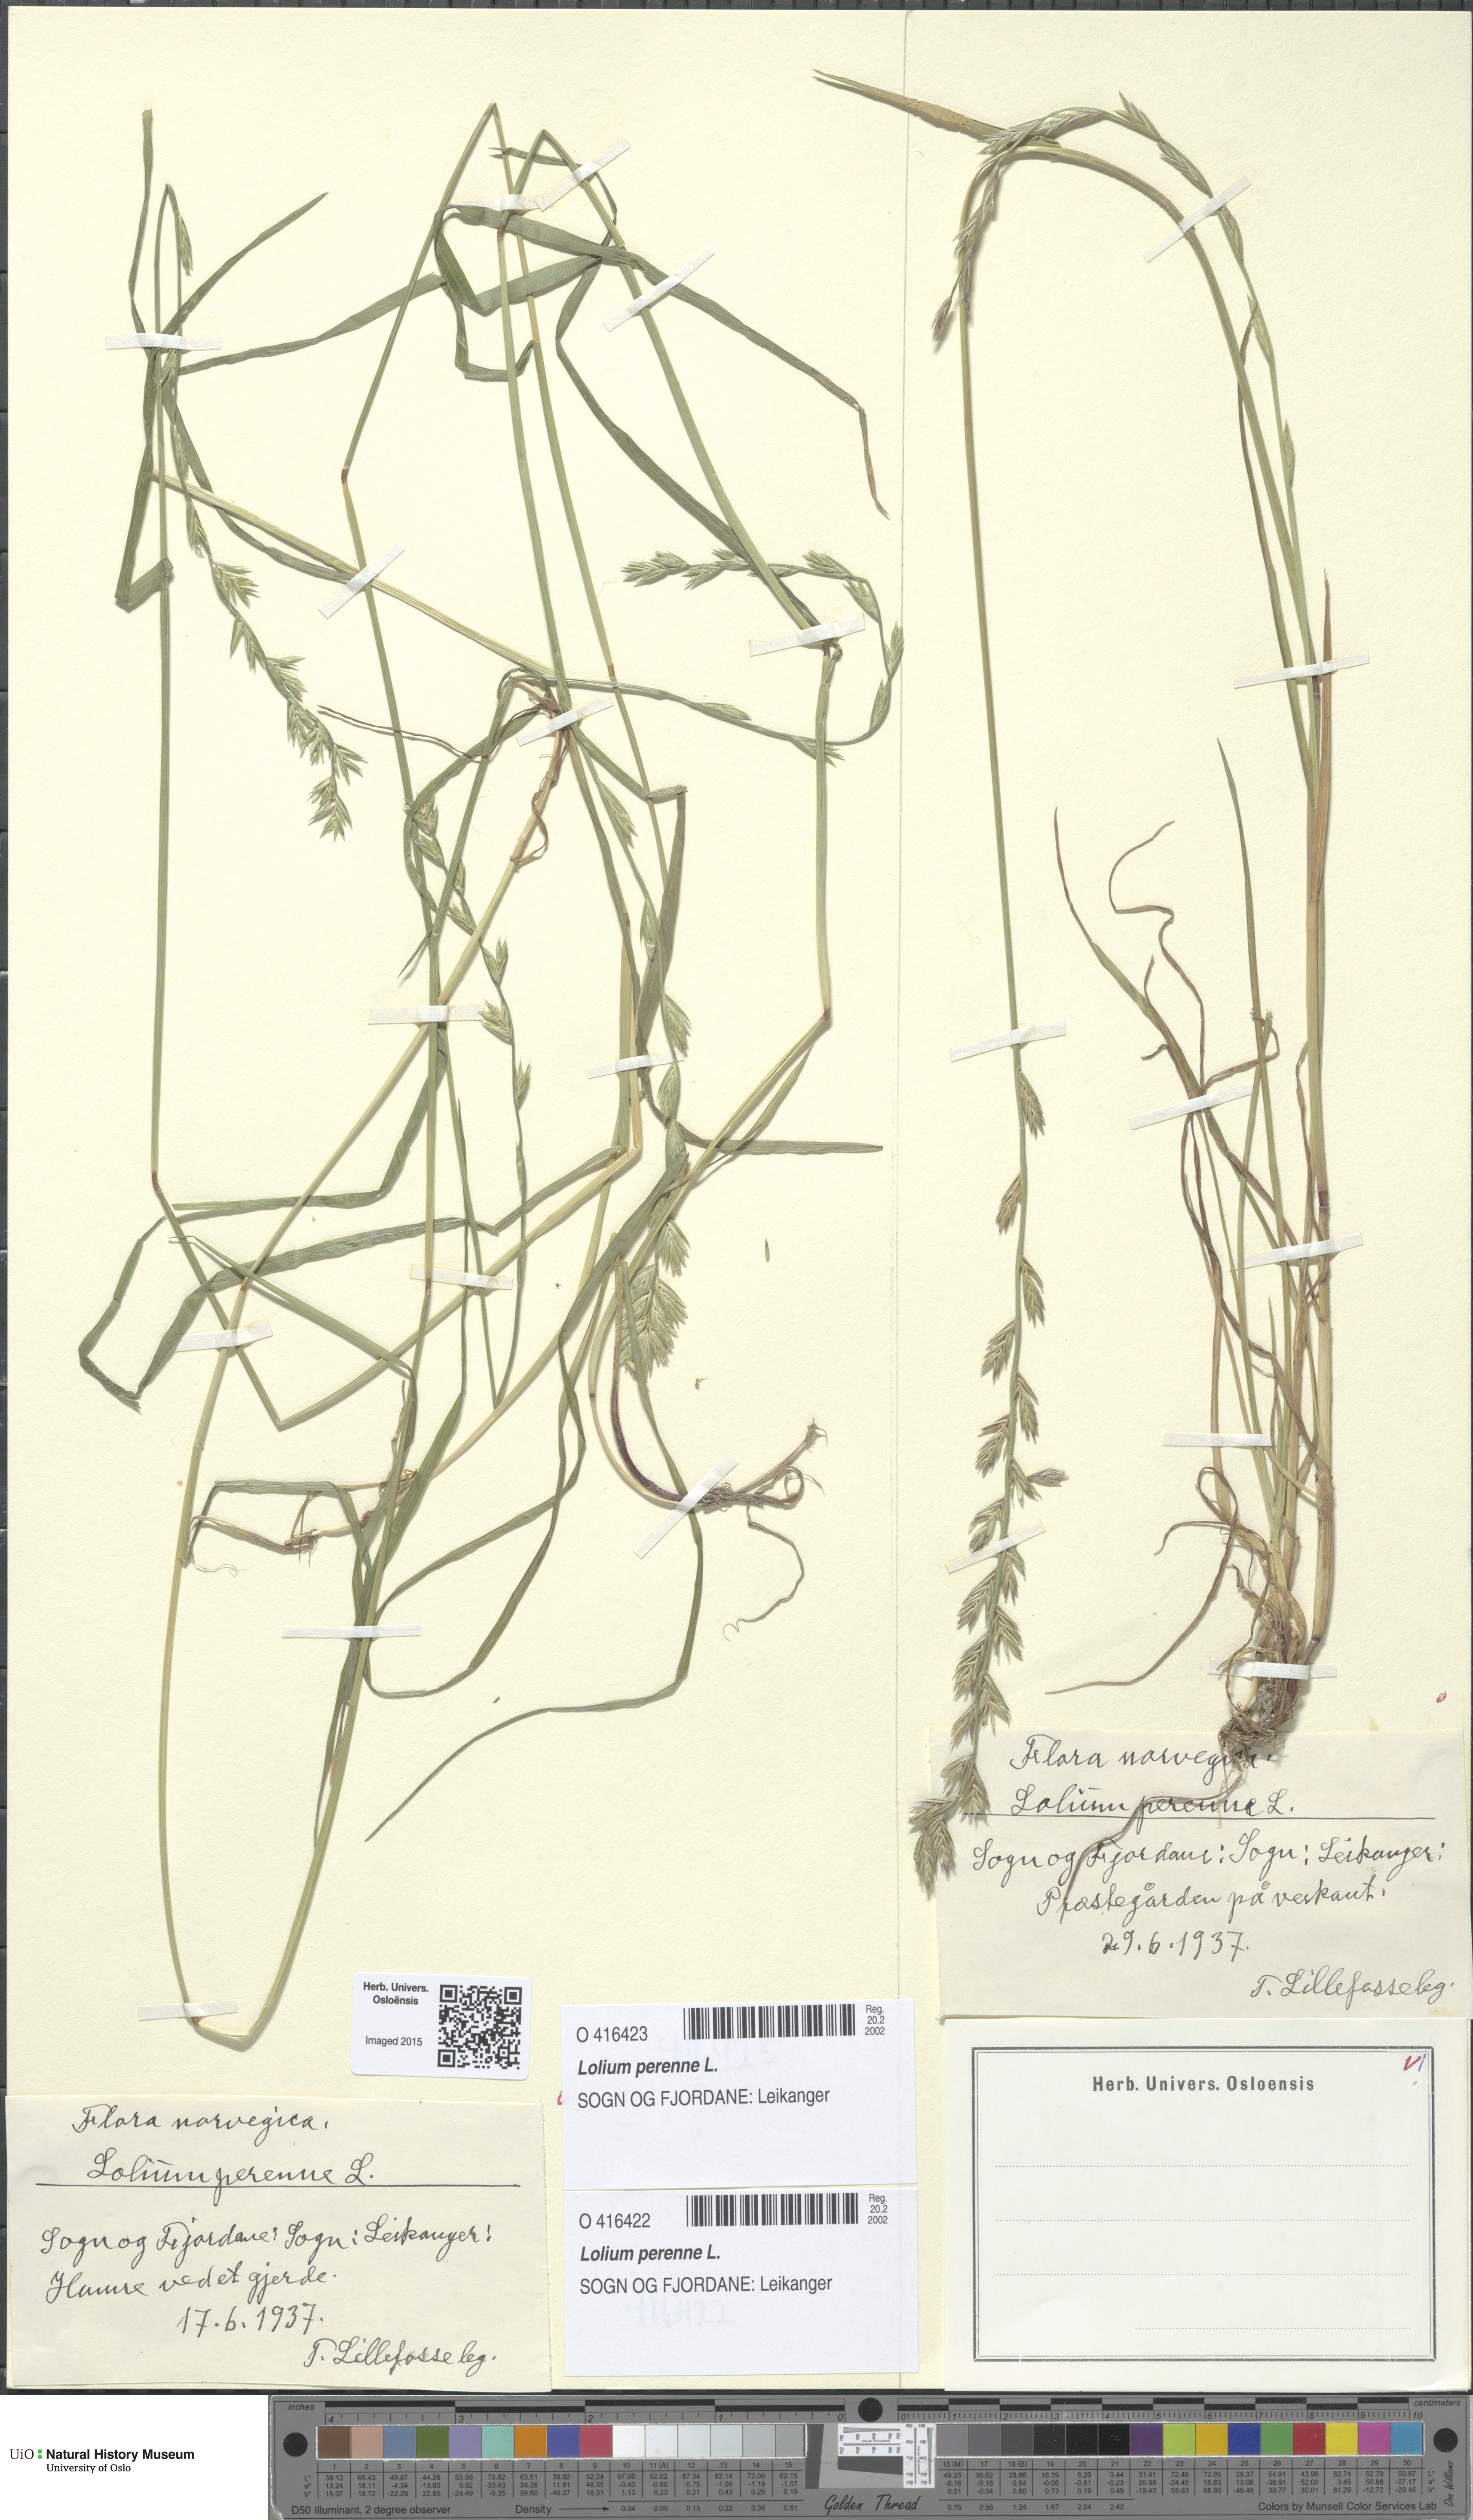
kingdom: Plantae
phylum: Tracheophyta
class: Liliopsida
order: Poales
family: Poaceae
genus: Lolium
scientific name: Lolium perenne
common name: Perennial ryegrass
